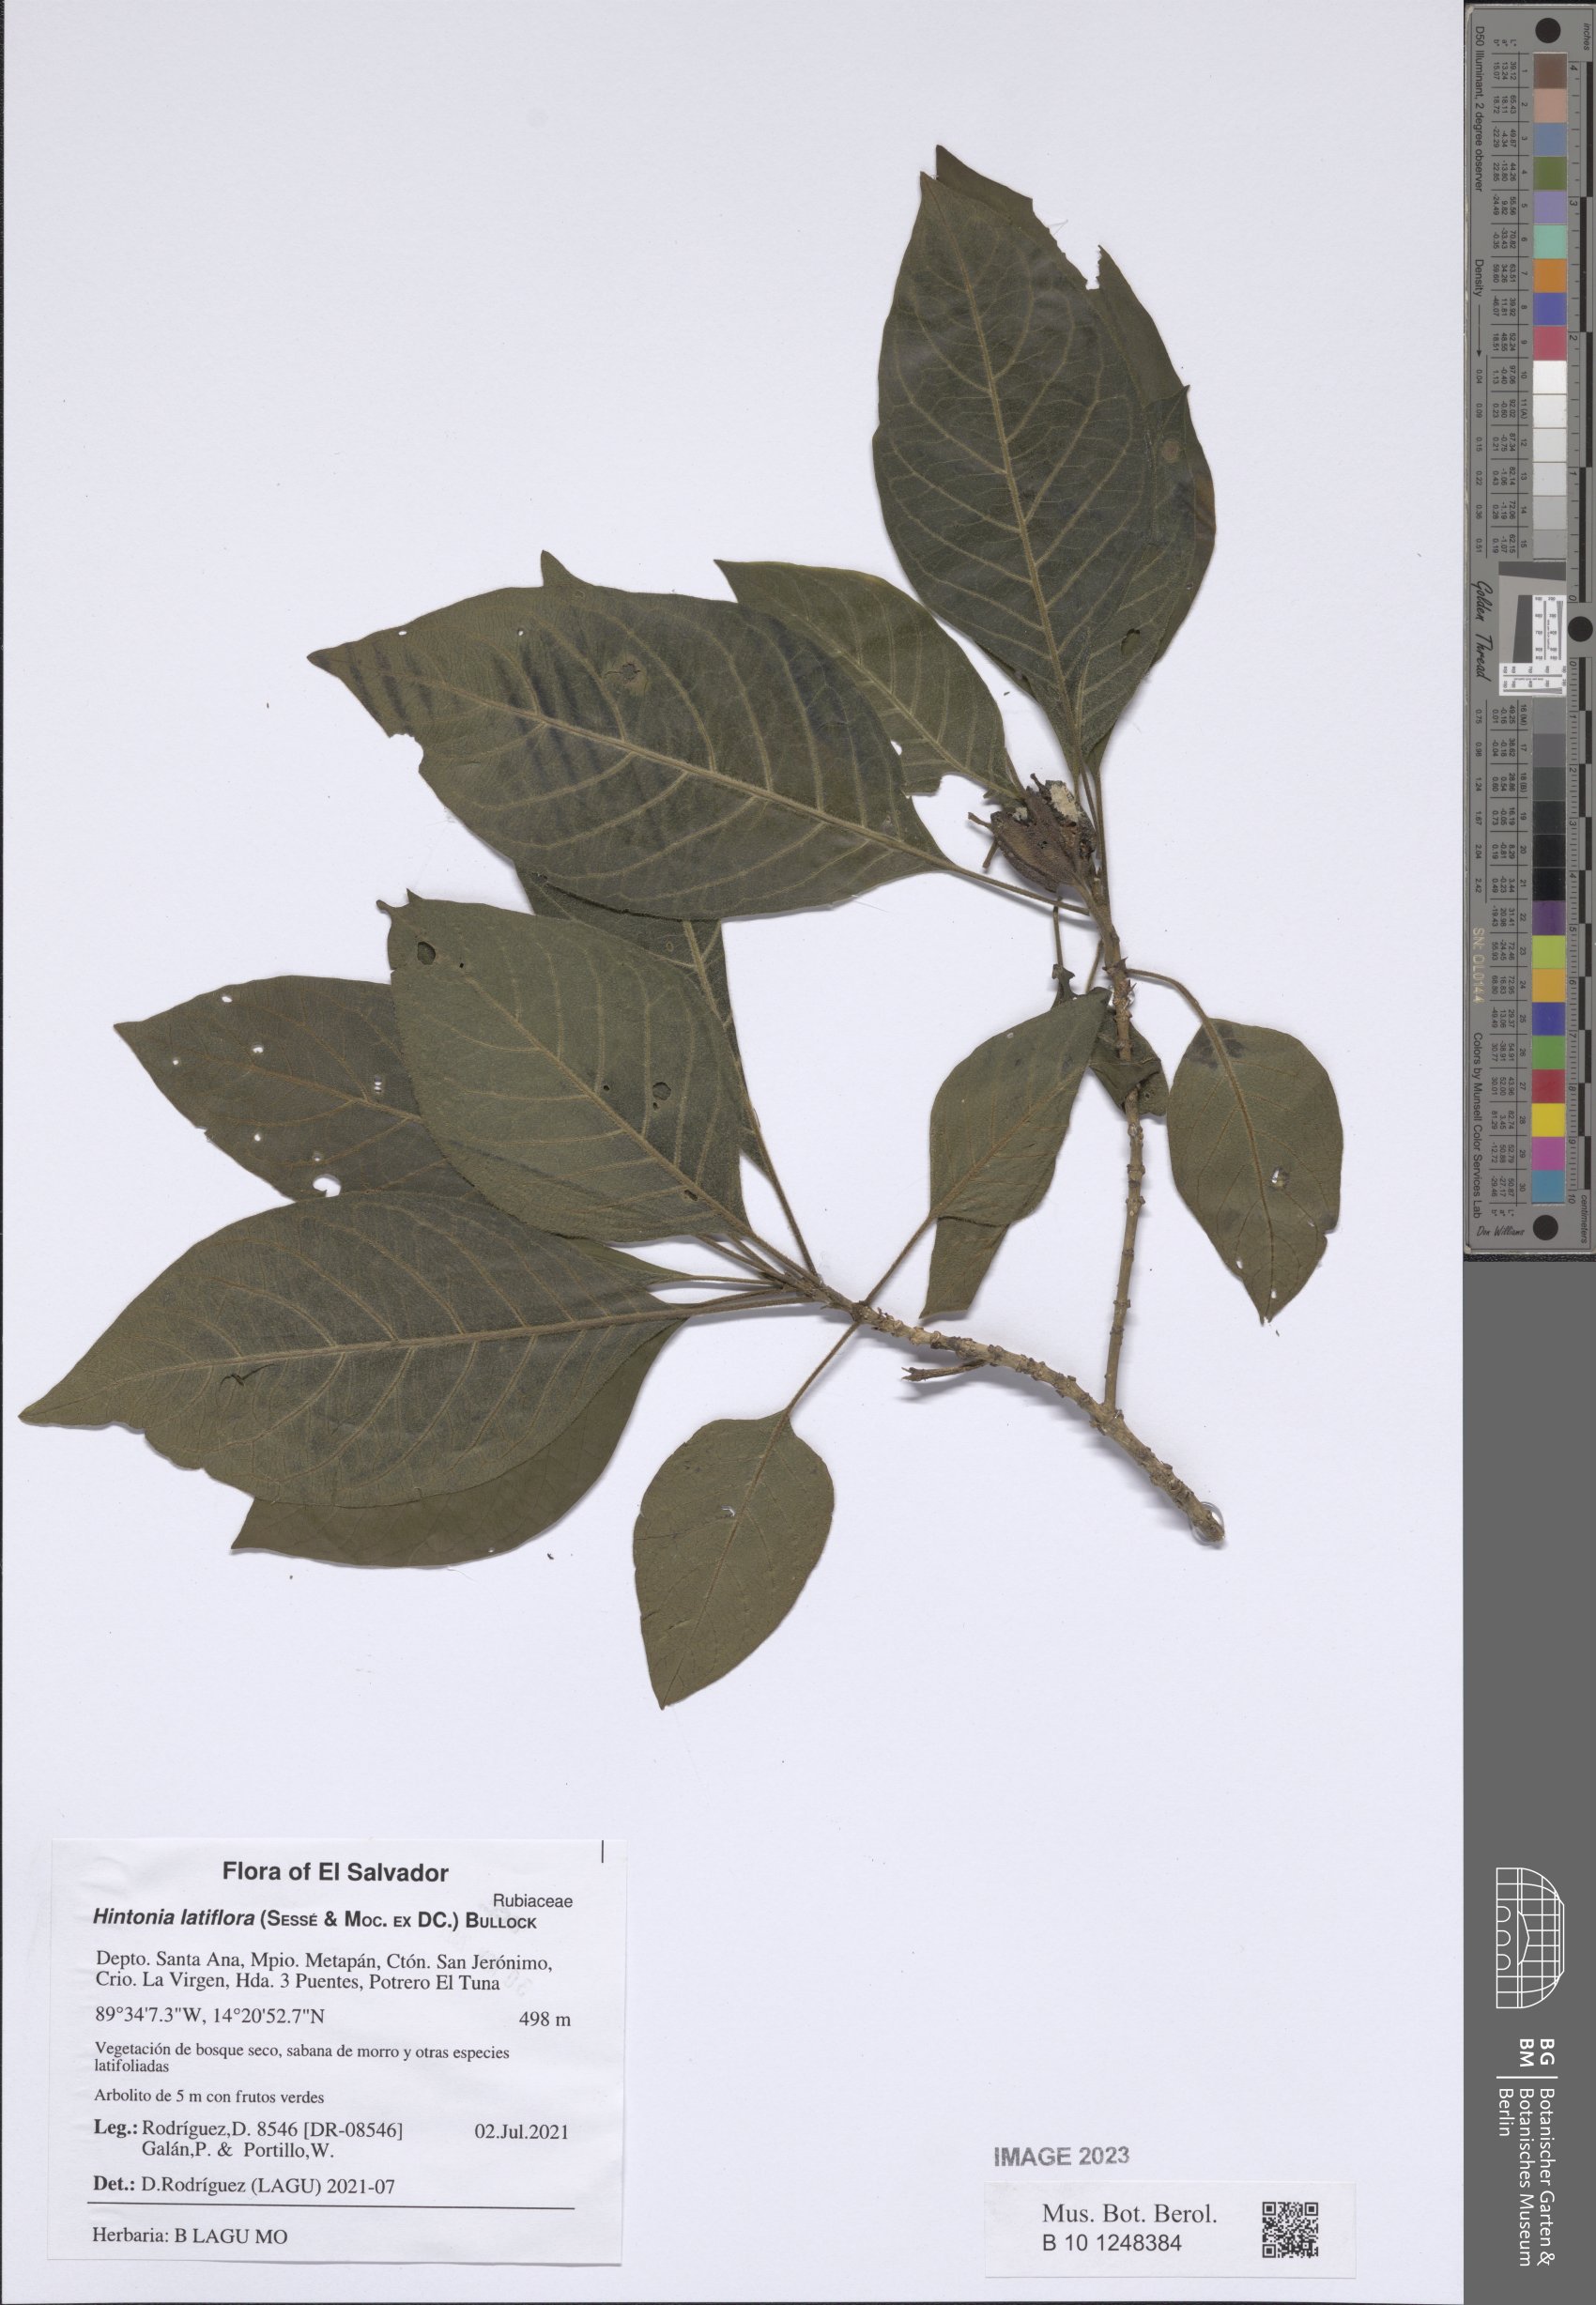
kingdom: Plantae
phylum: Tracheophyta
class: Magnoliopsida
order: Gentianales
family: Rubiaceae
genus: Hintonia
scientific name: Hintonia latiflora
